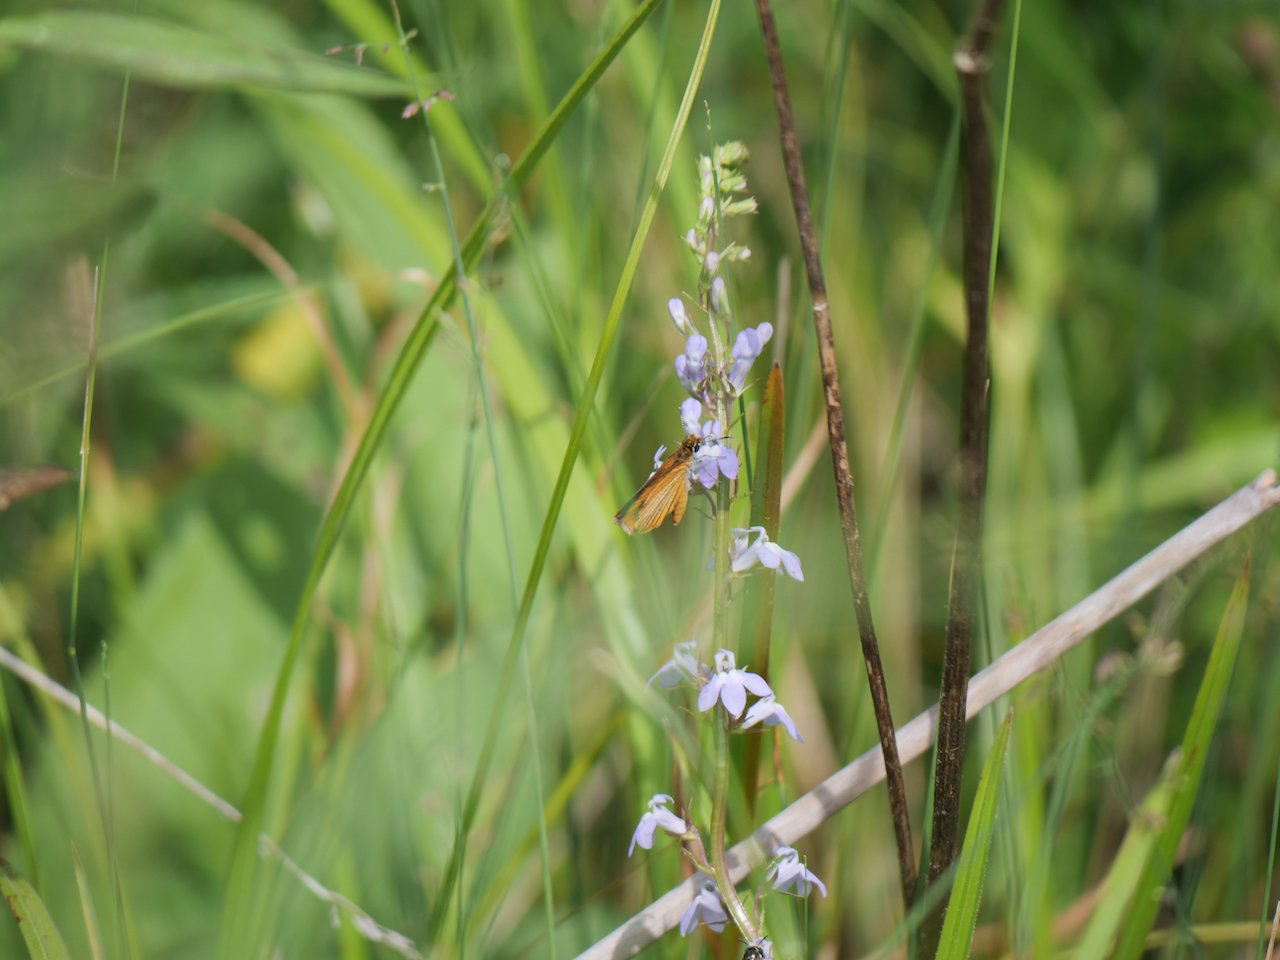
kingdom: Animalia
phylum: Arthropoda
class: Insecta
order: Lepidoptera
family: Hesperiidae
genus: Ancyloxypha
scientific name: Ancyloxypha numitor
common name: Least Skipper
